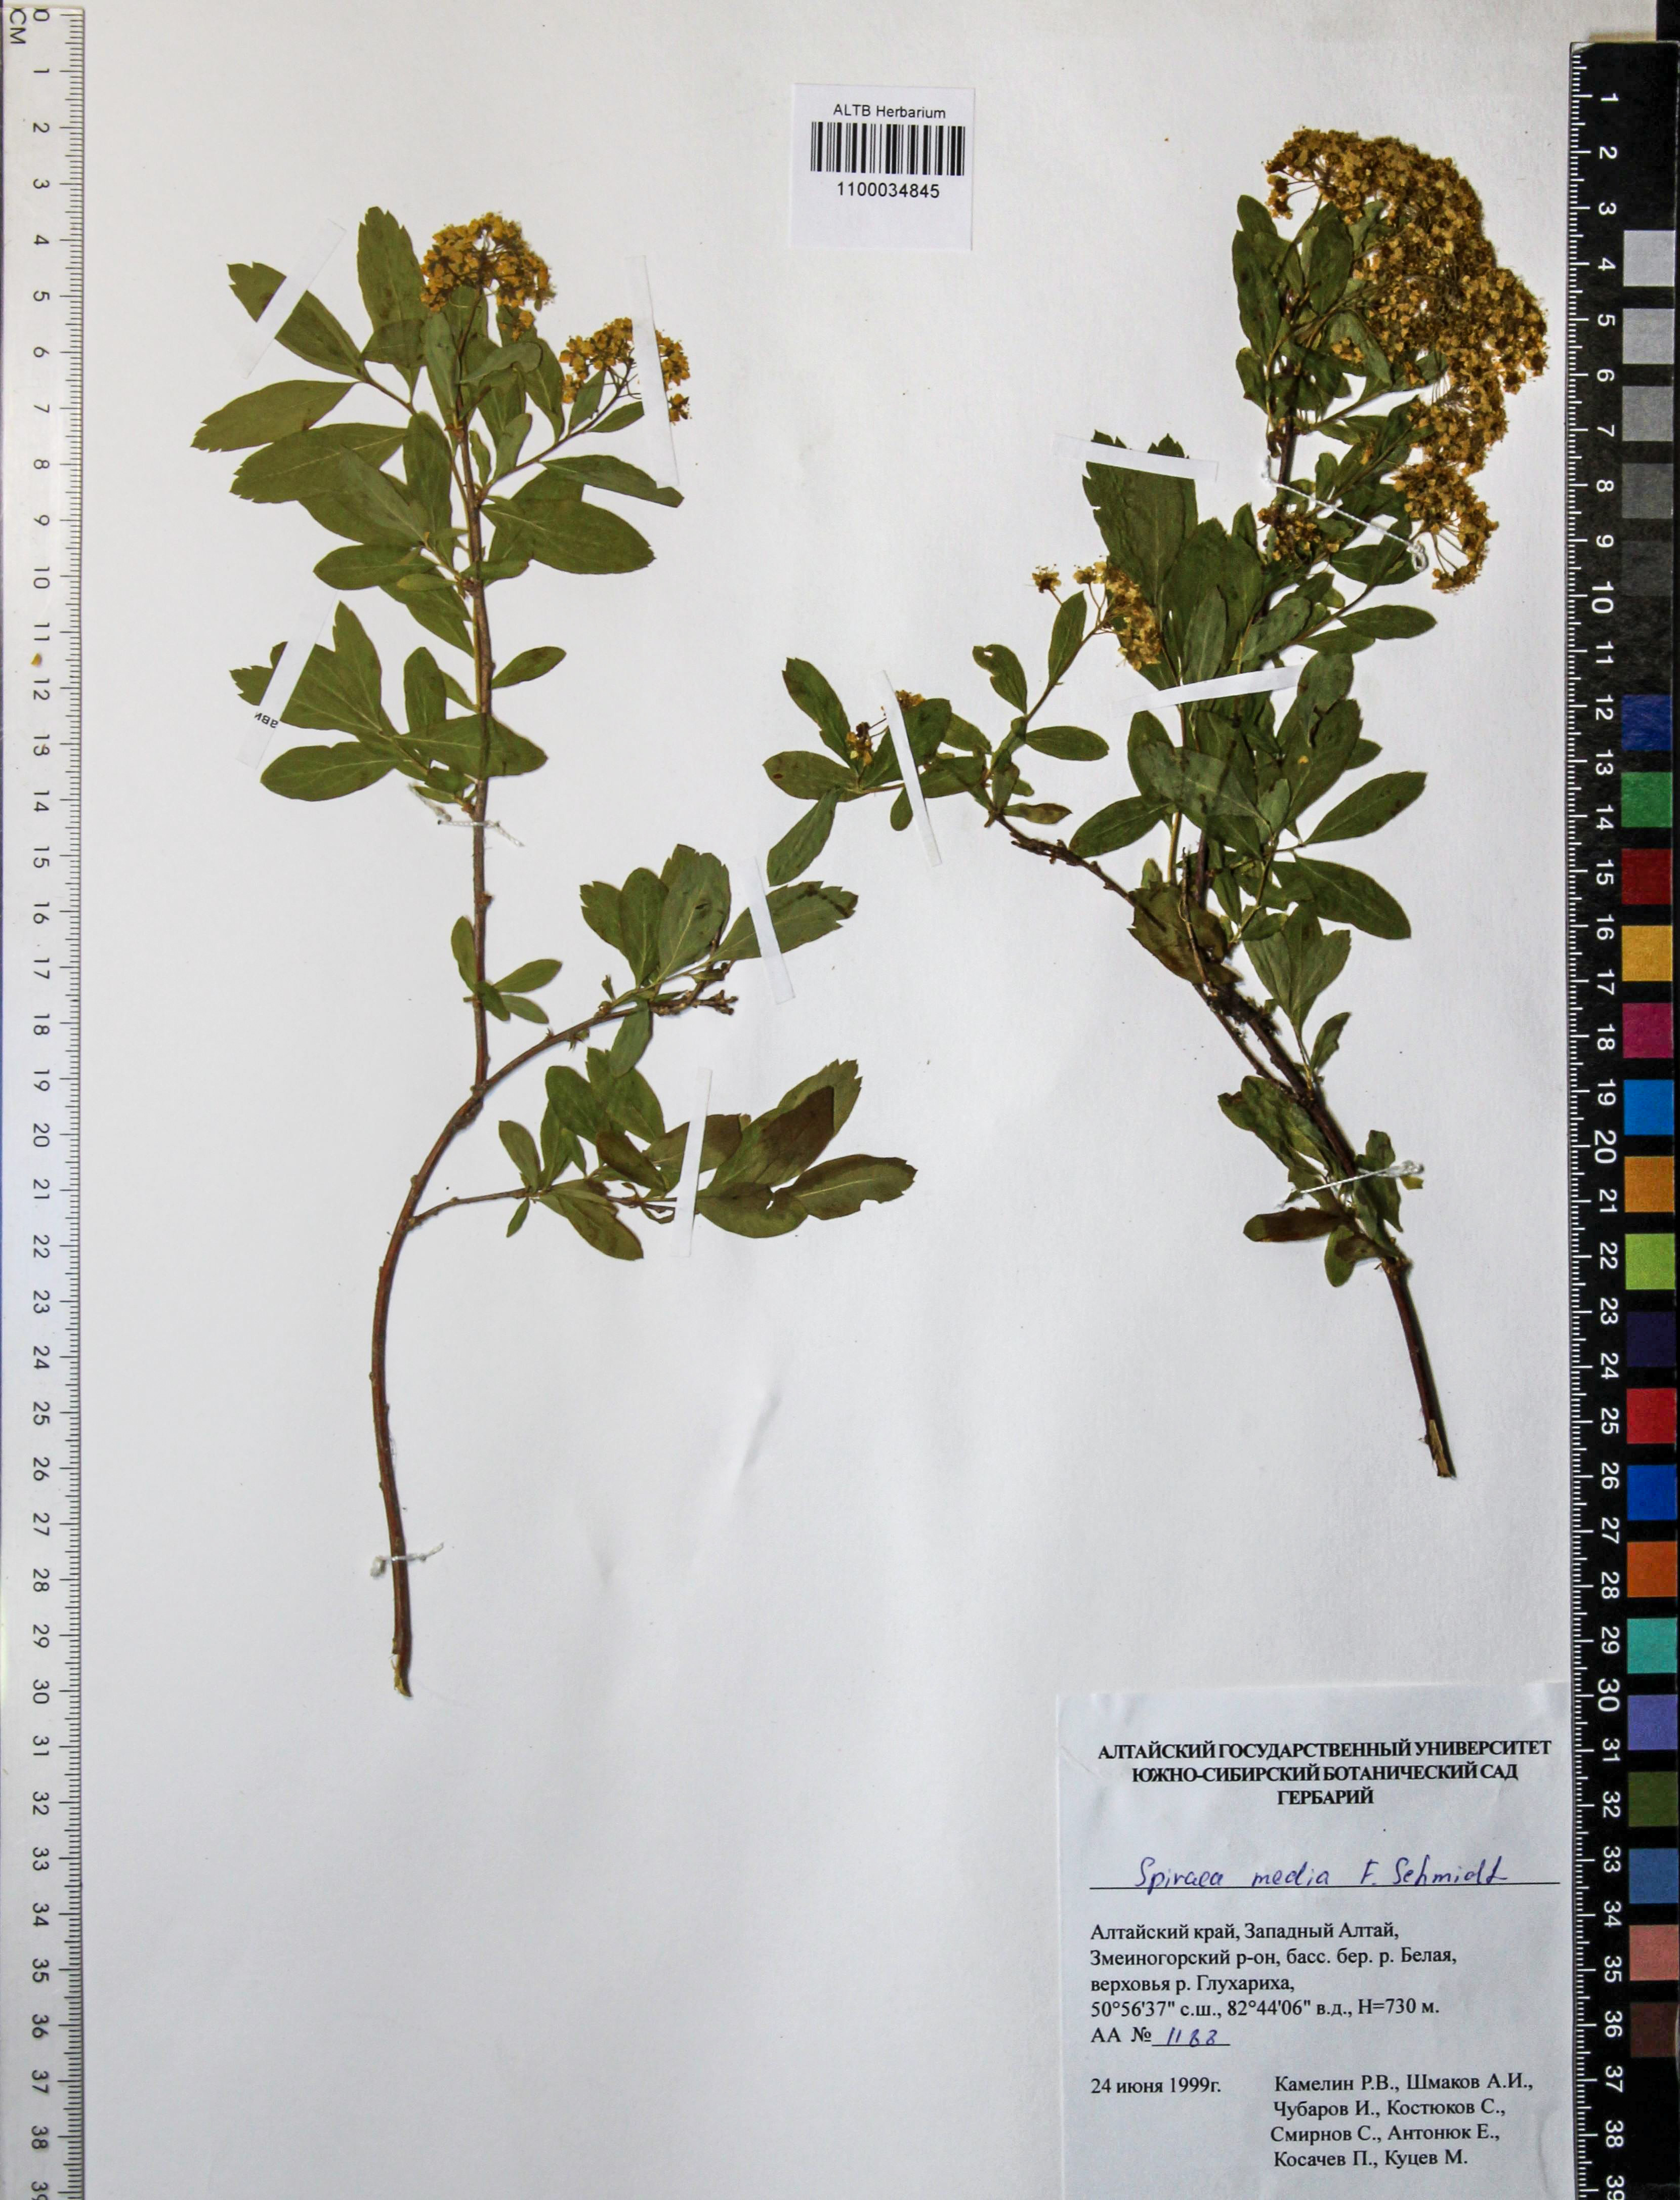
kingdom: Plantae
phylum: Tracheophyta
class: Magnoliopsida
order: Rosales
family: Rosaceae
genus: Spiraea
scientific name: Spiraea media
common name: Russian spiraea
